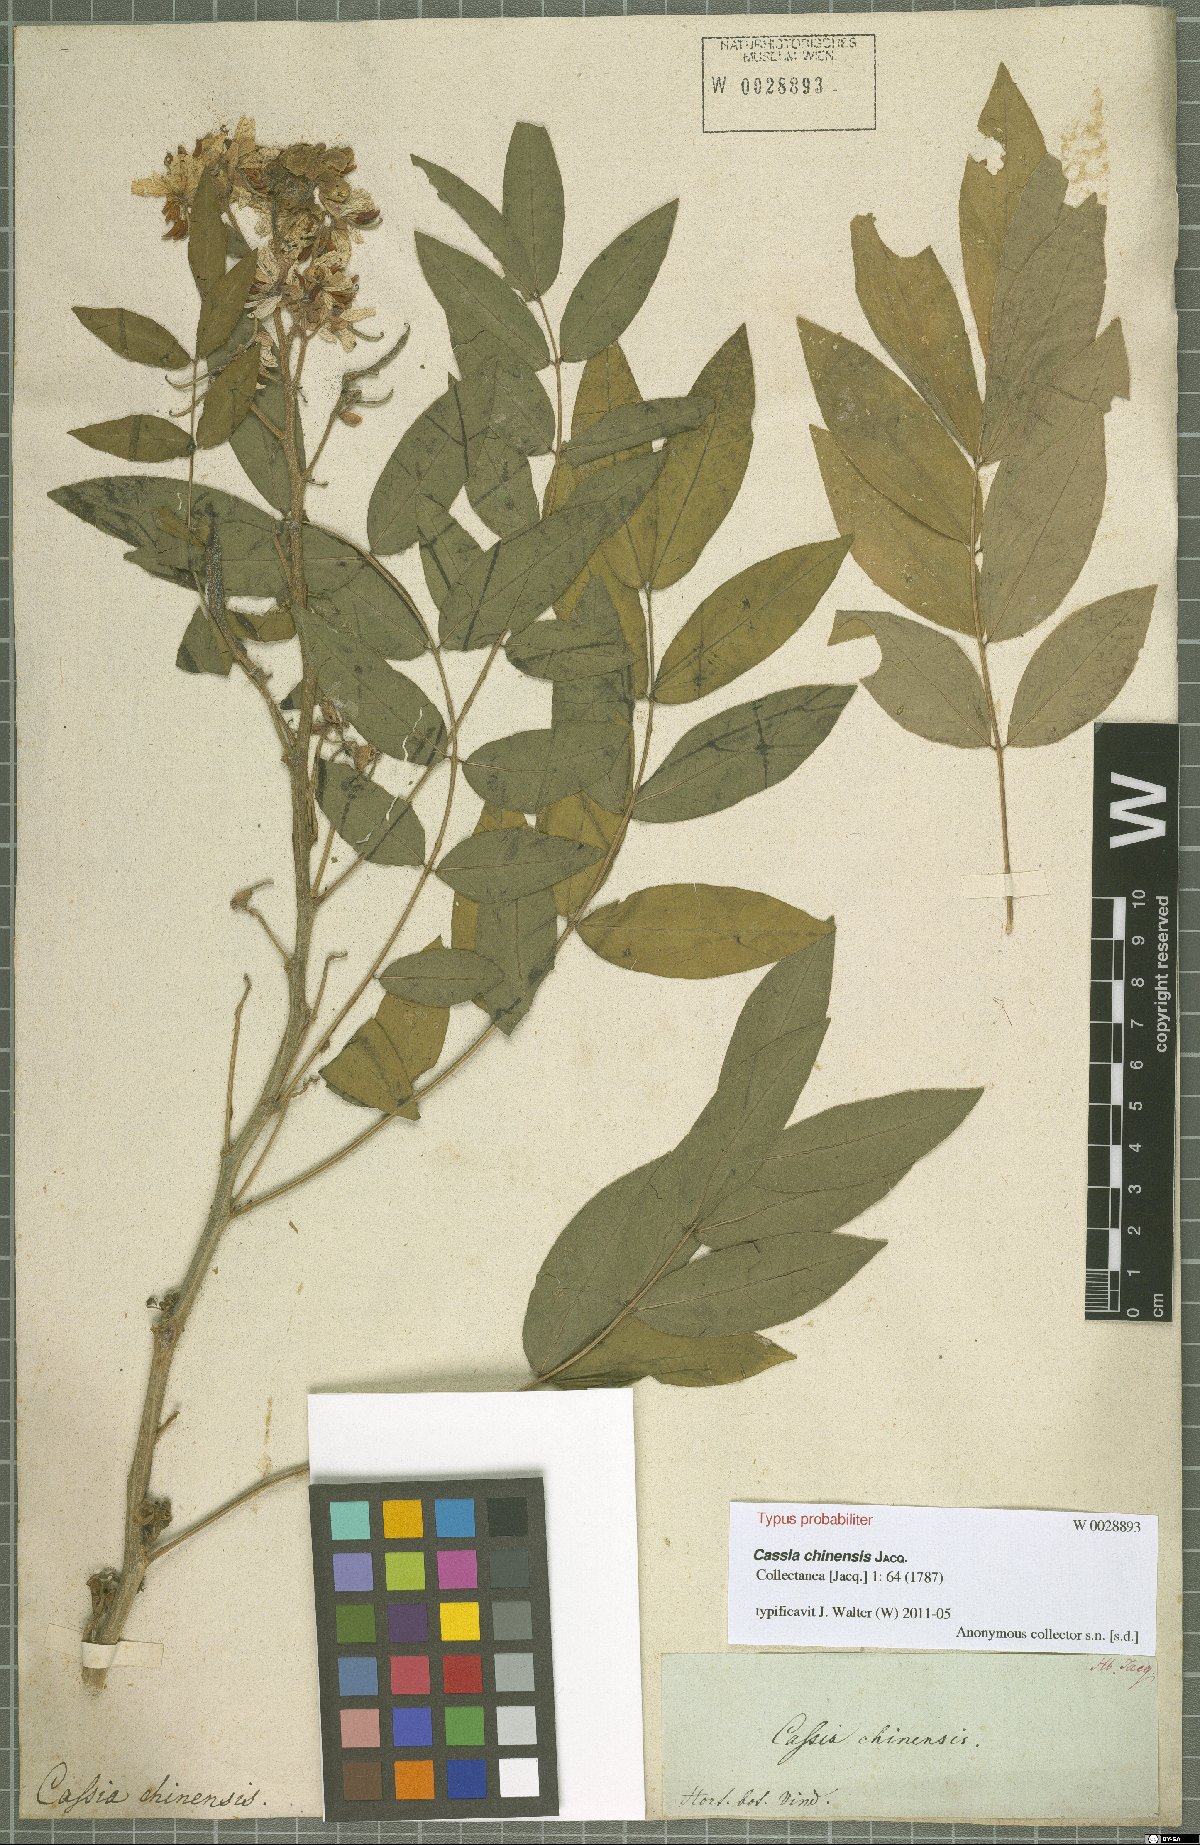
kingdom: Plantae
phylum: Tracheophyta
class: Magnoliopsida
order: Fabales
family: Fabaceae
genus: Senna
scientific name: Senna sophera
